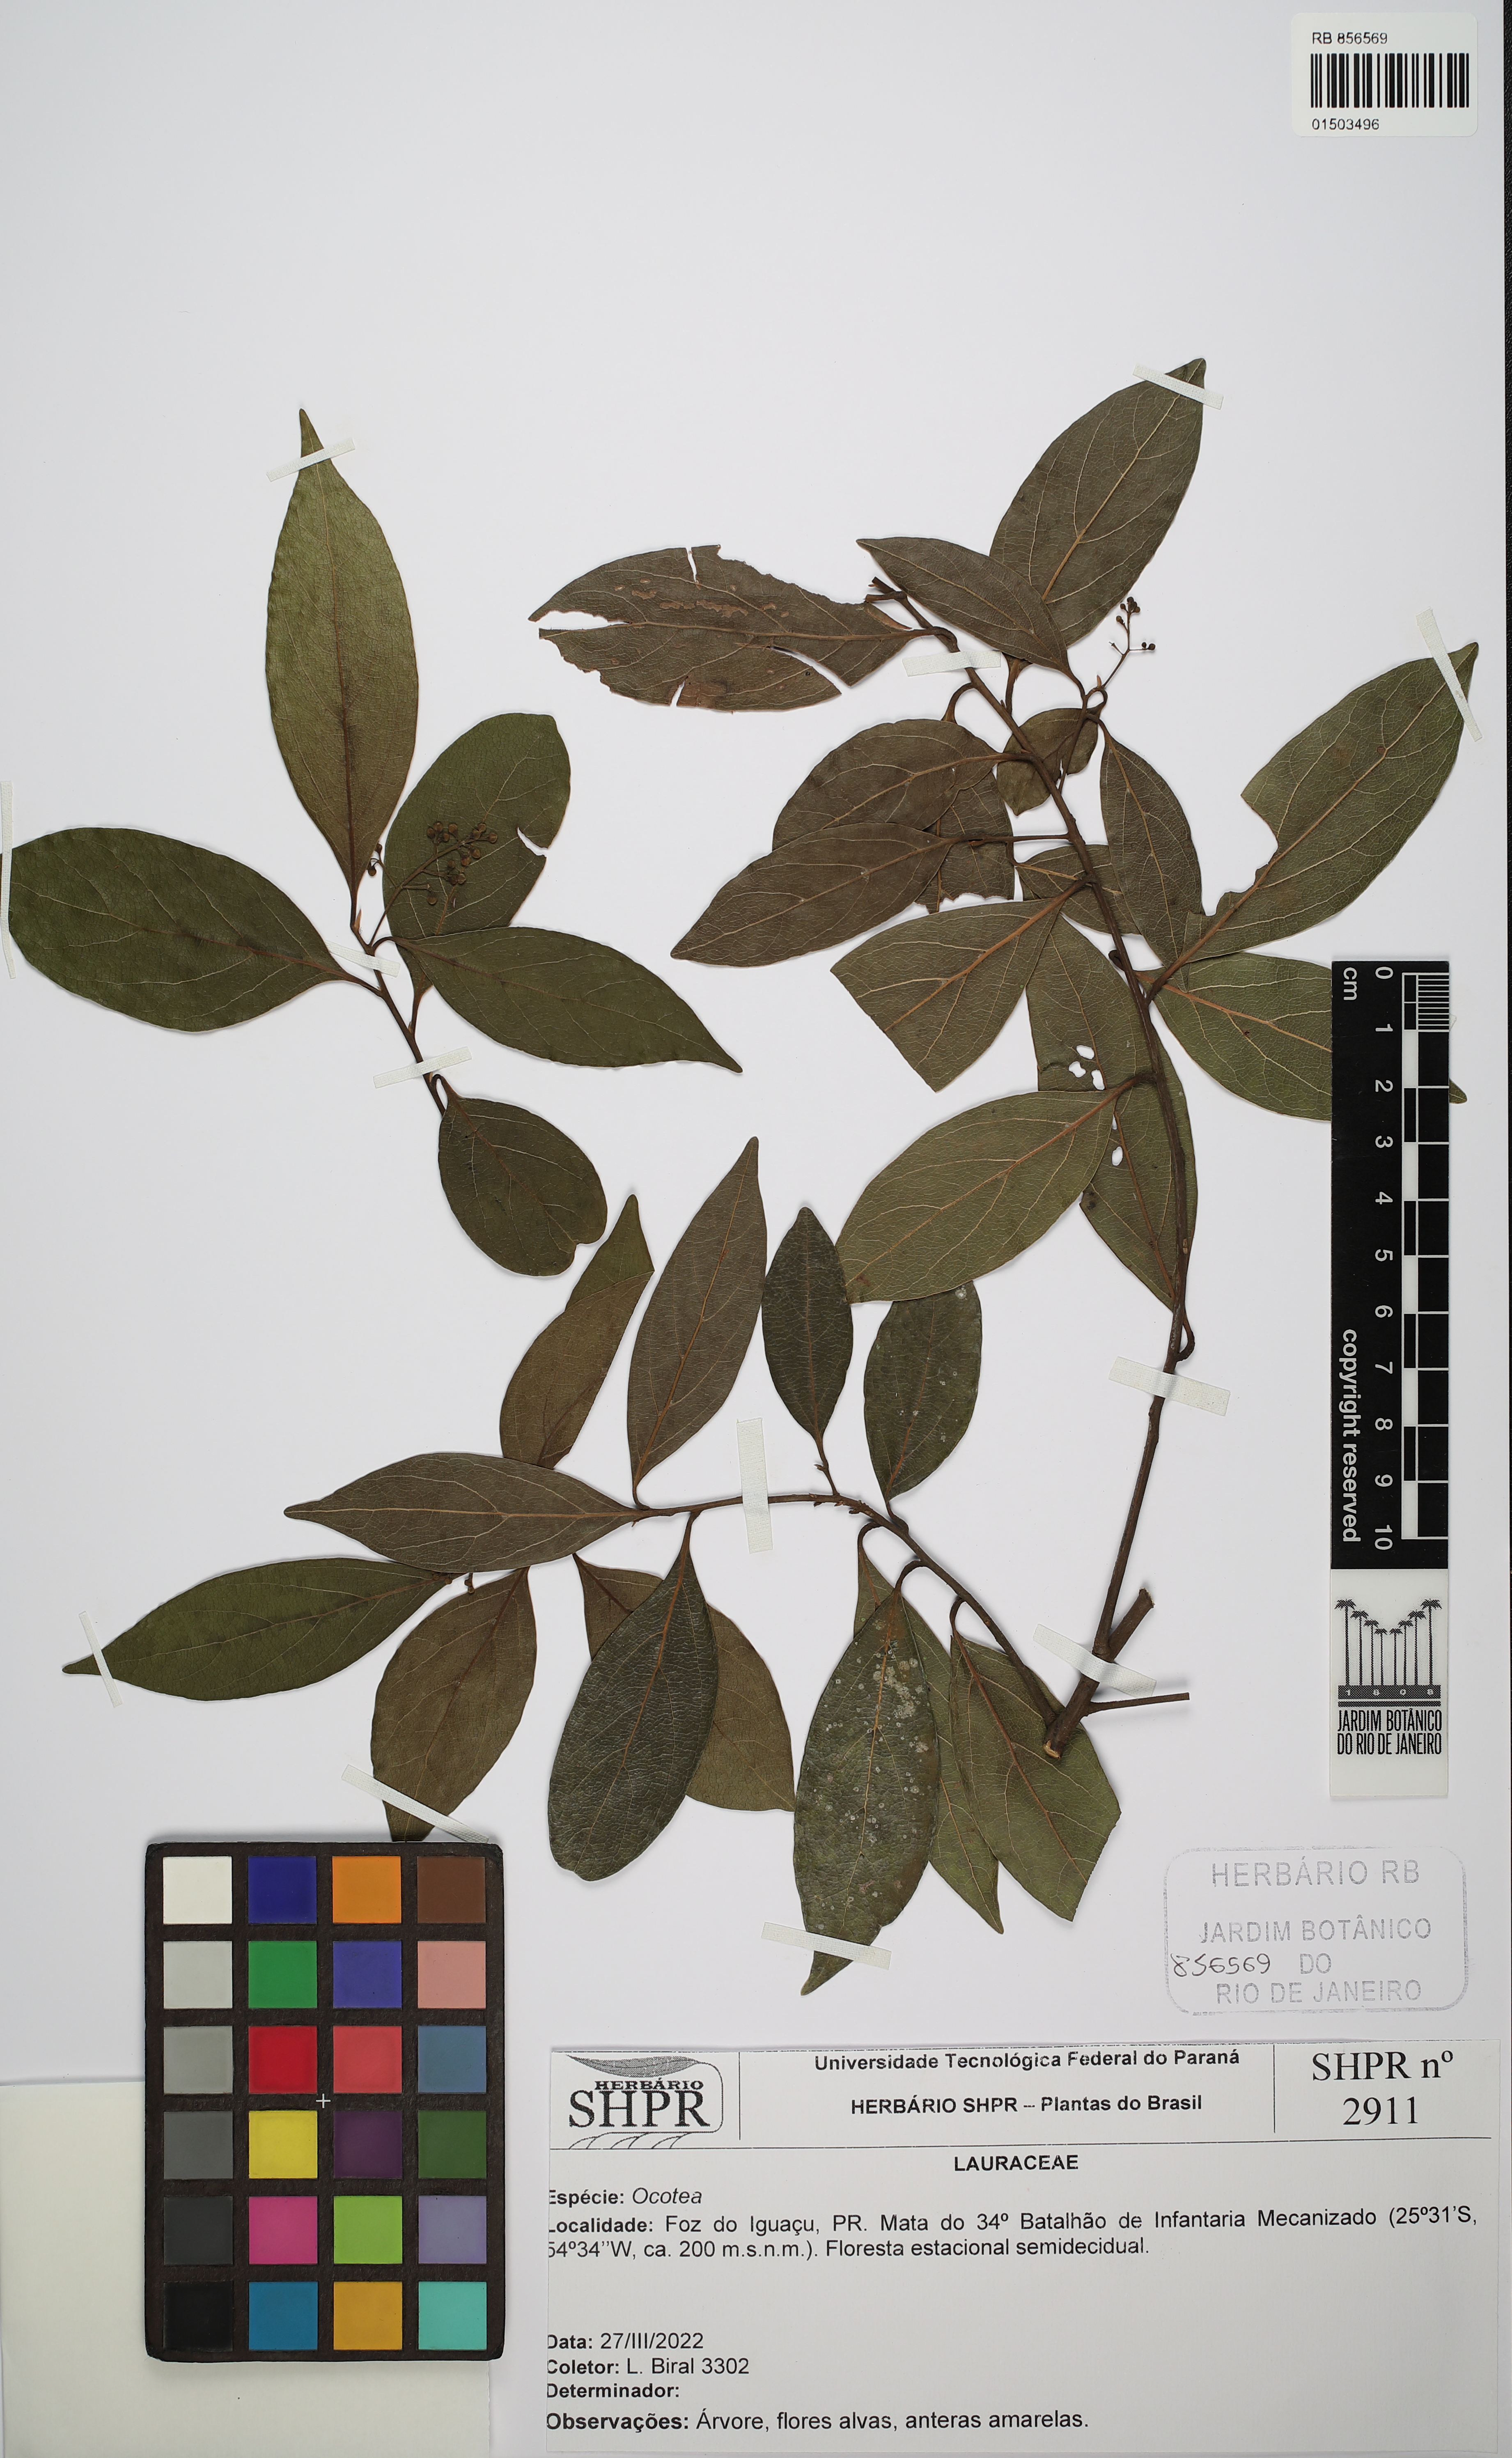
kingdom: Plantae
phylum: Tracheophyta
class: Magnoliopsida
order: Laurales
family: Lauraceae
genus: Ocotea
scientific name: Ocotea
